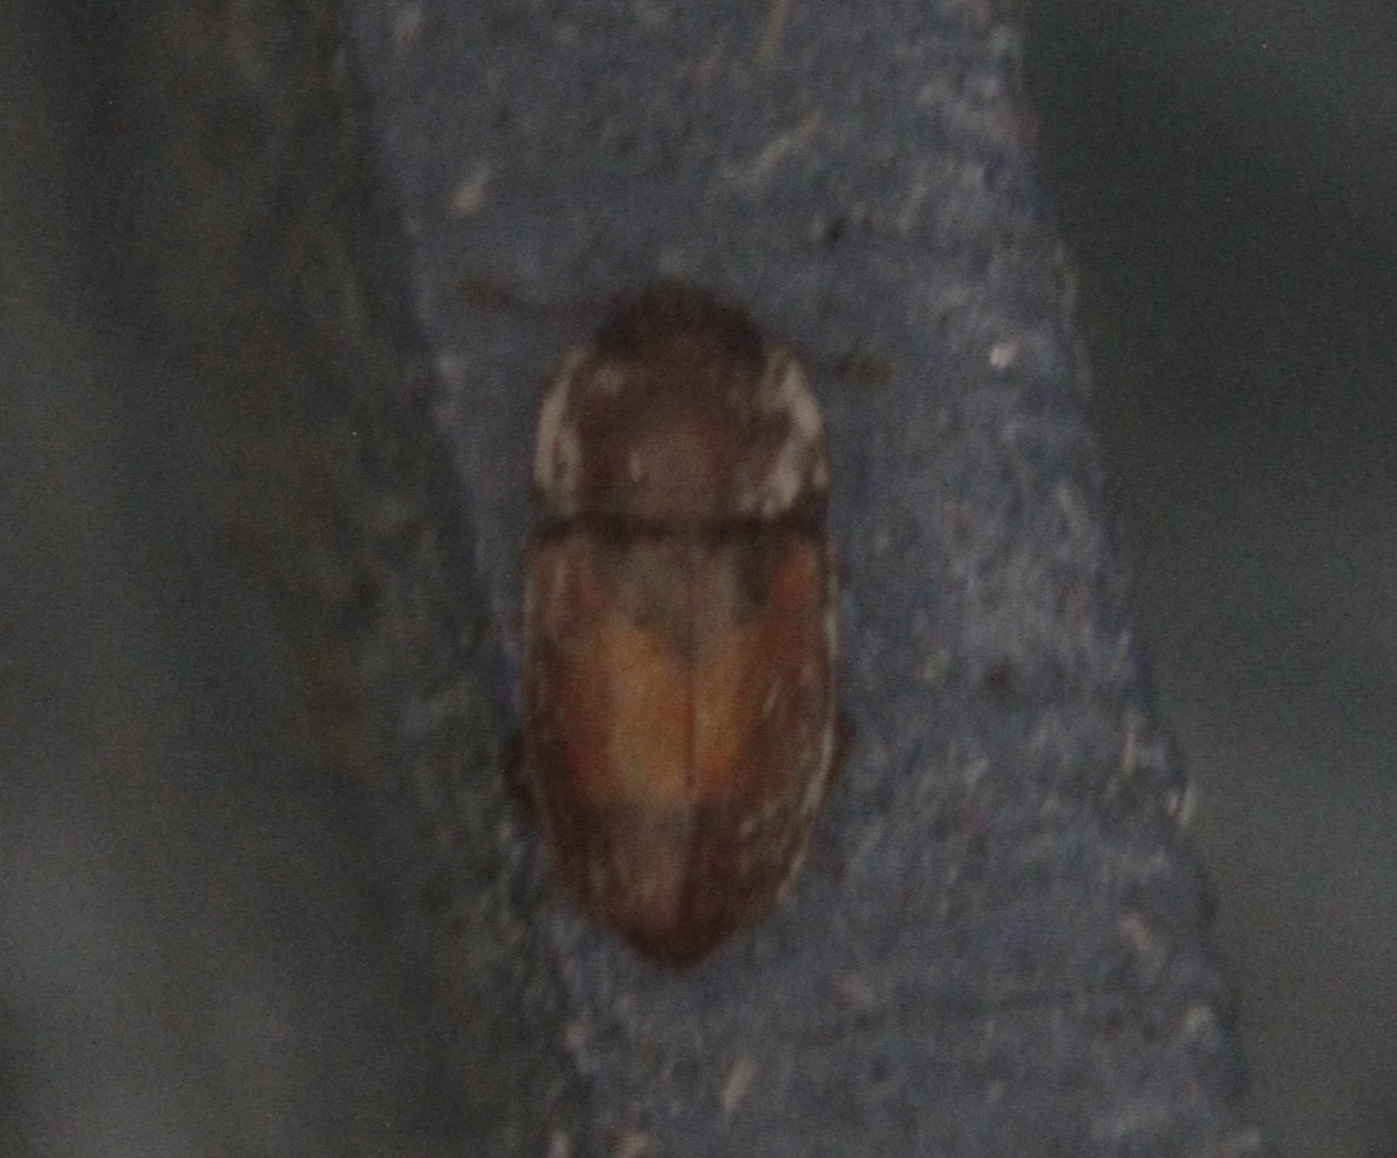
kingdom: Animalia
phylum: Arthropoda
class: Insecta
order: Coleoptera
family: Nitidulidae
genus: Epuraea
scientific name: Epuraea
